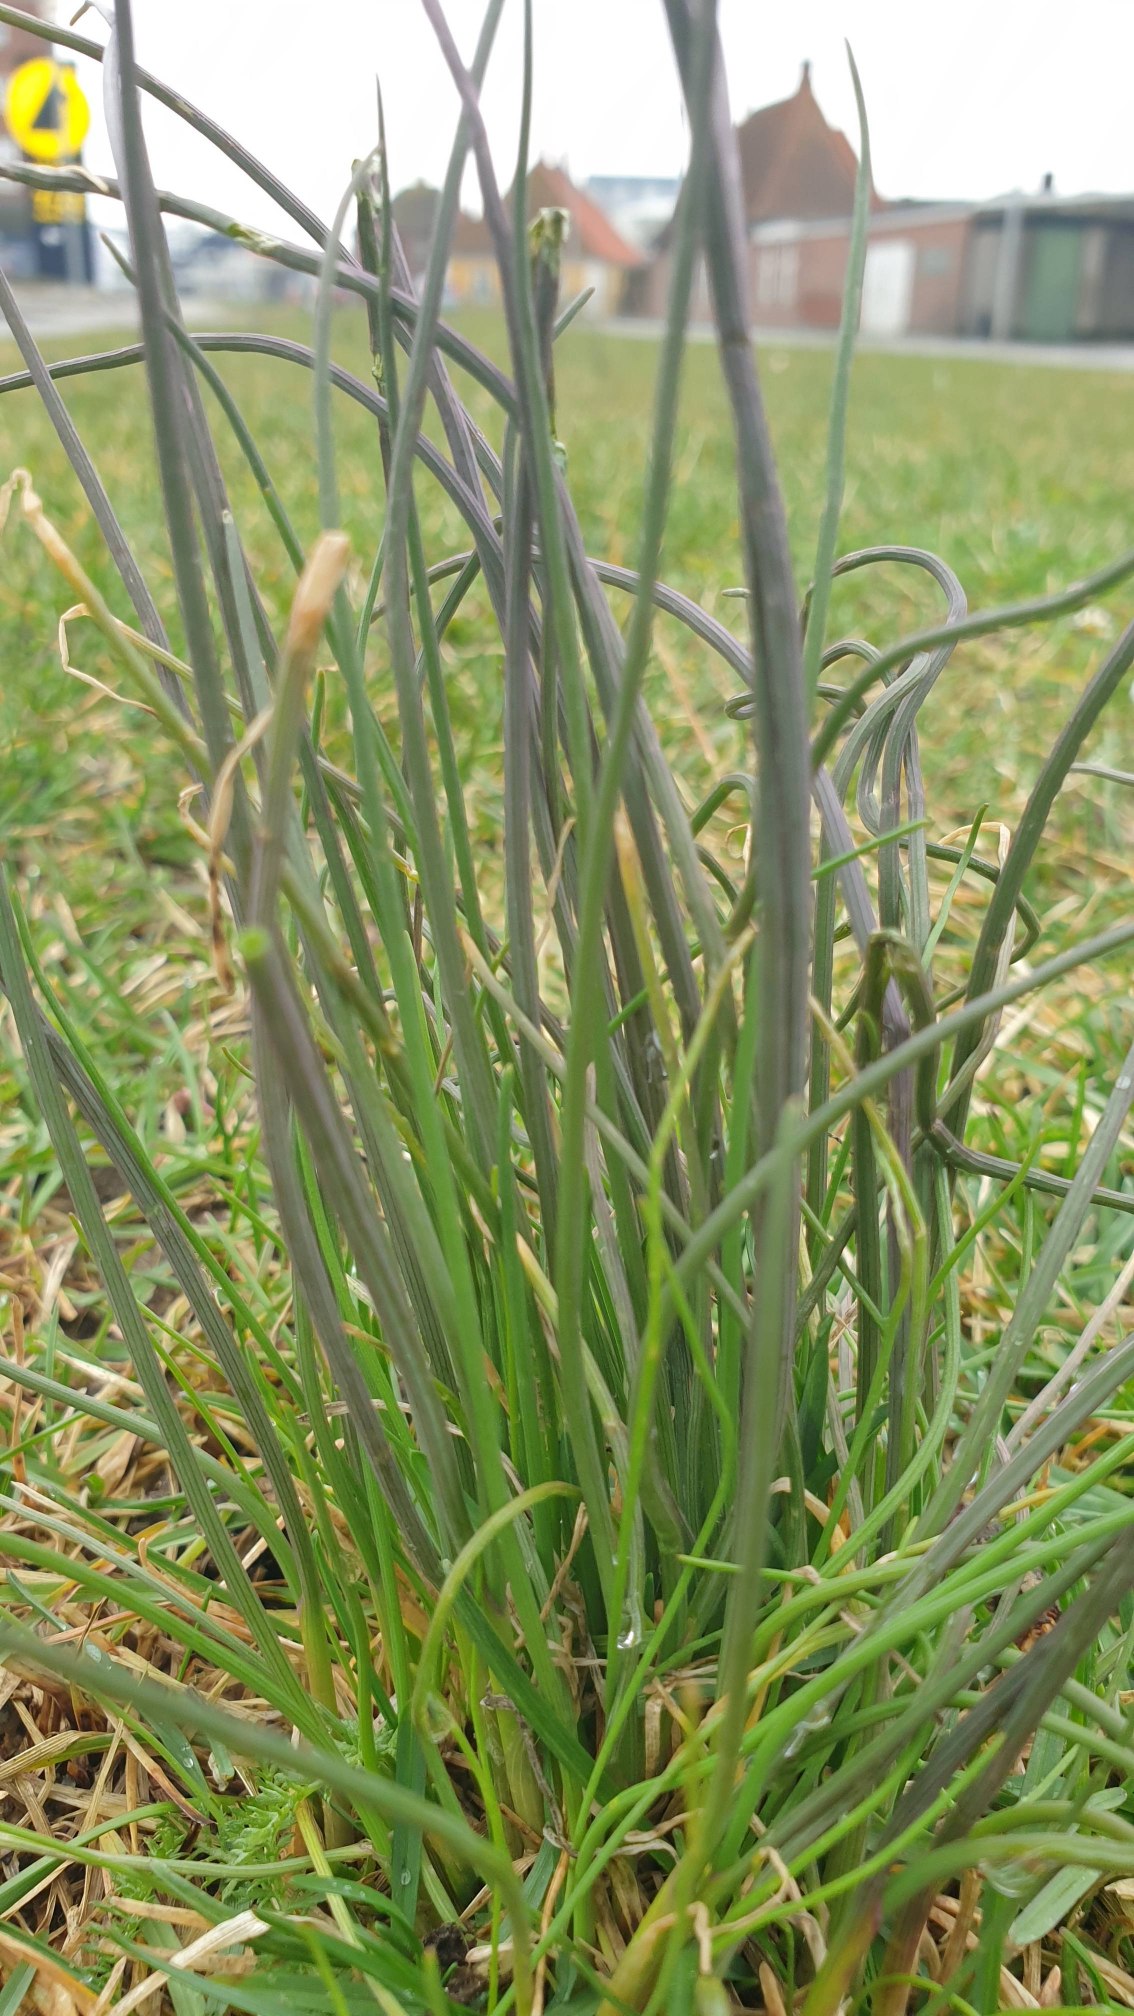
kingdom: Plantae
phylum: Tracheophyta
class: Liliopsida
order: Asparagales
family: Amaryllidaceae
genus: Allium
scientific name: Allium schoenoprasum
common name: Pur-løg
